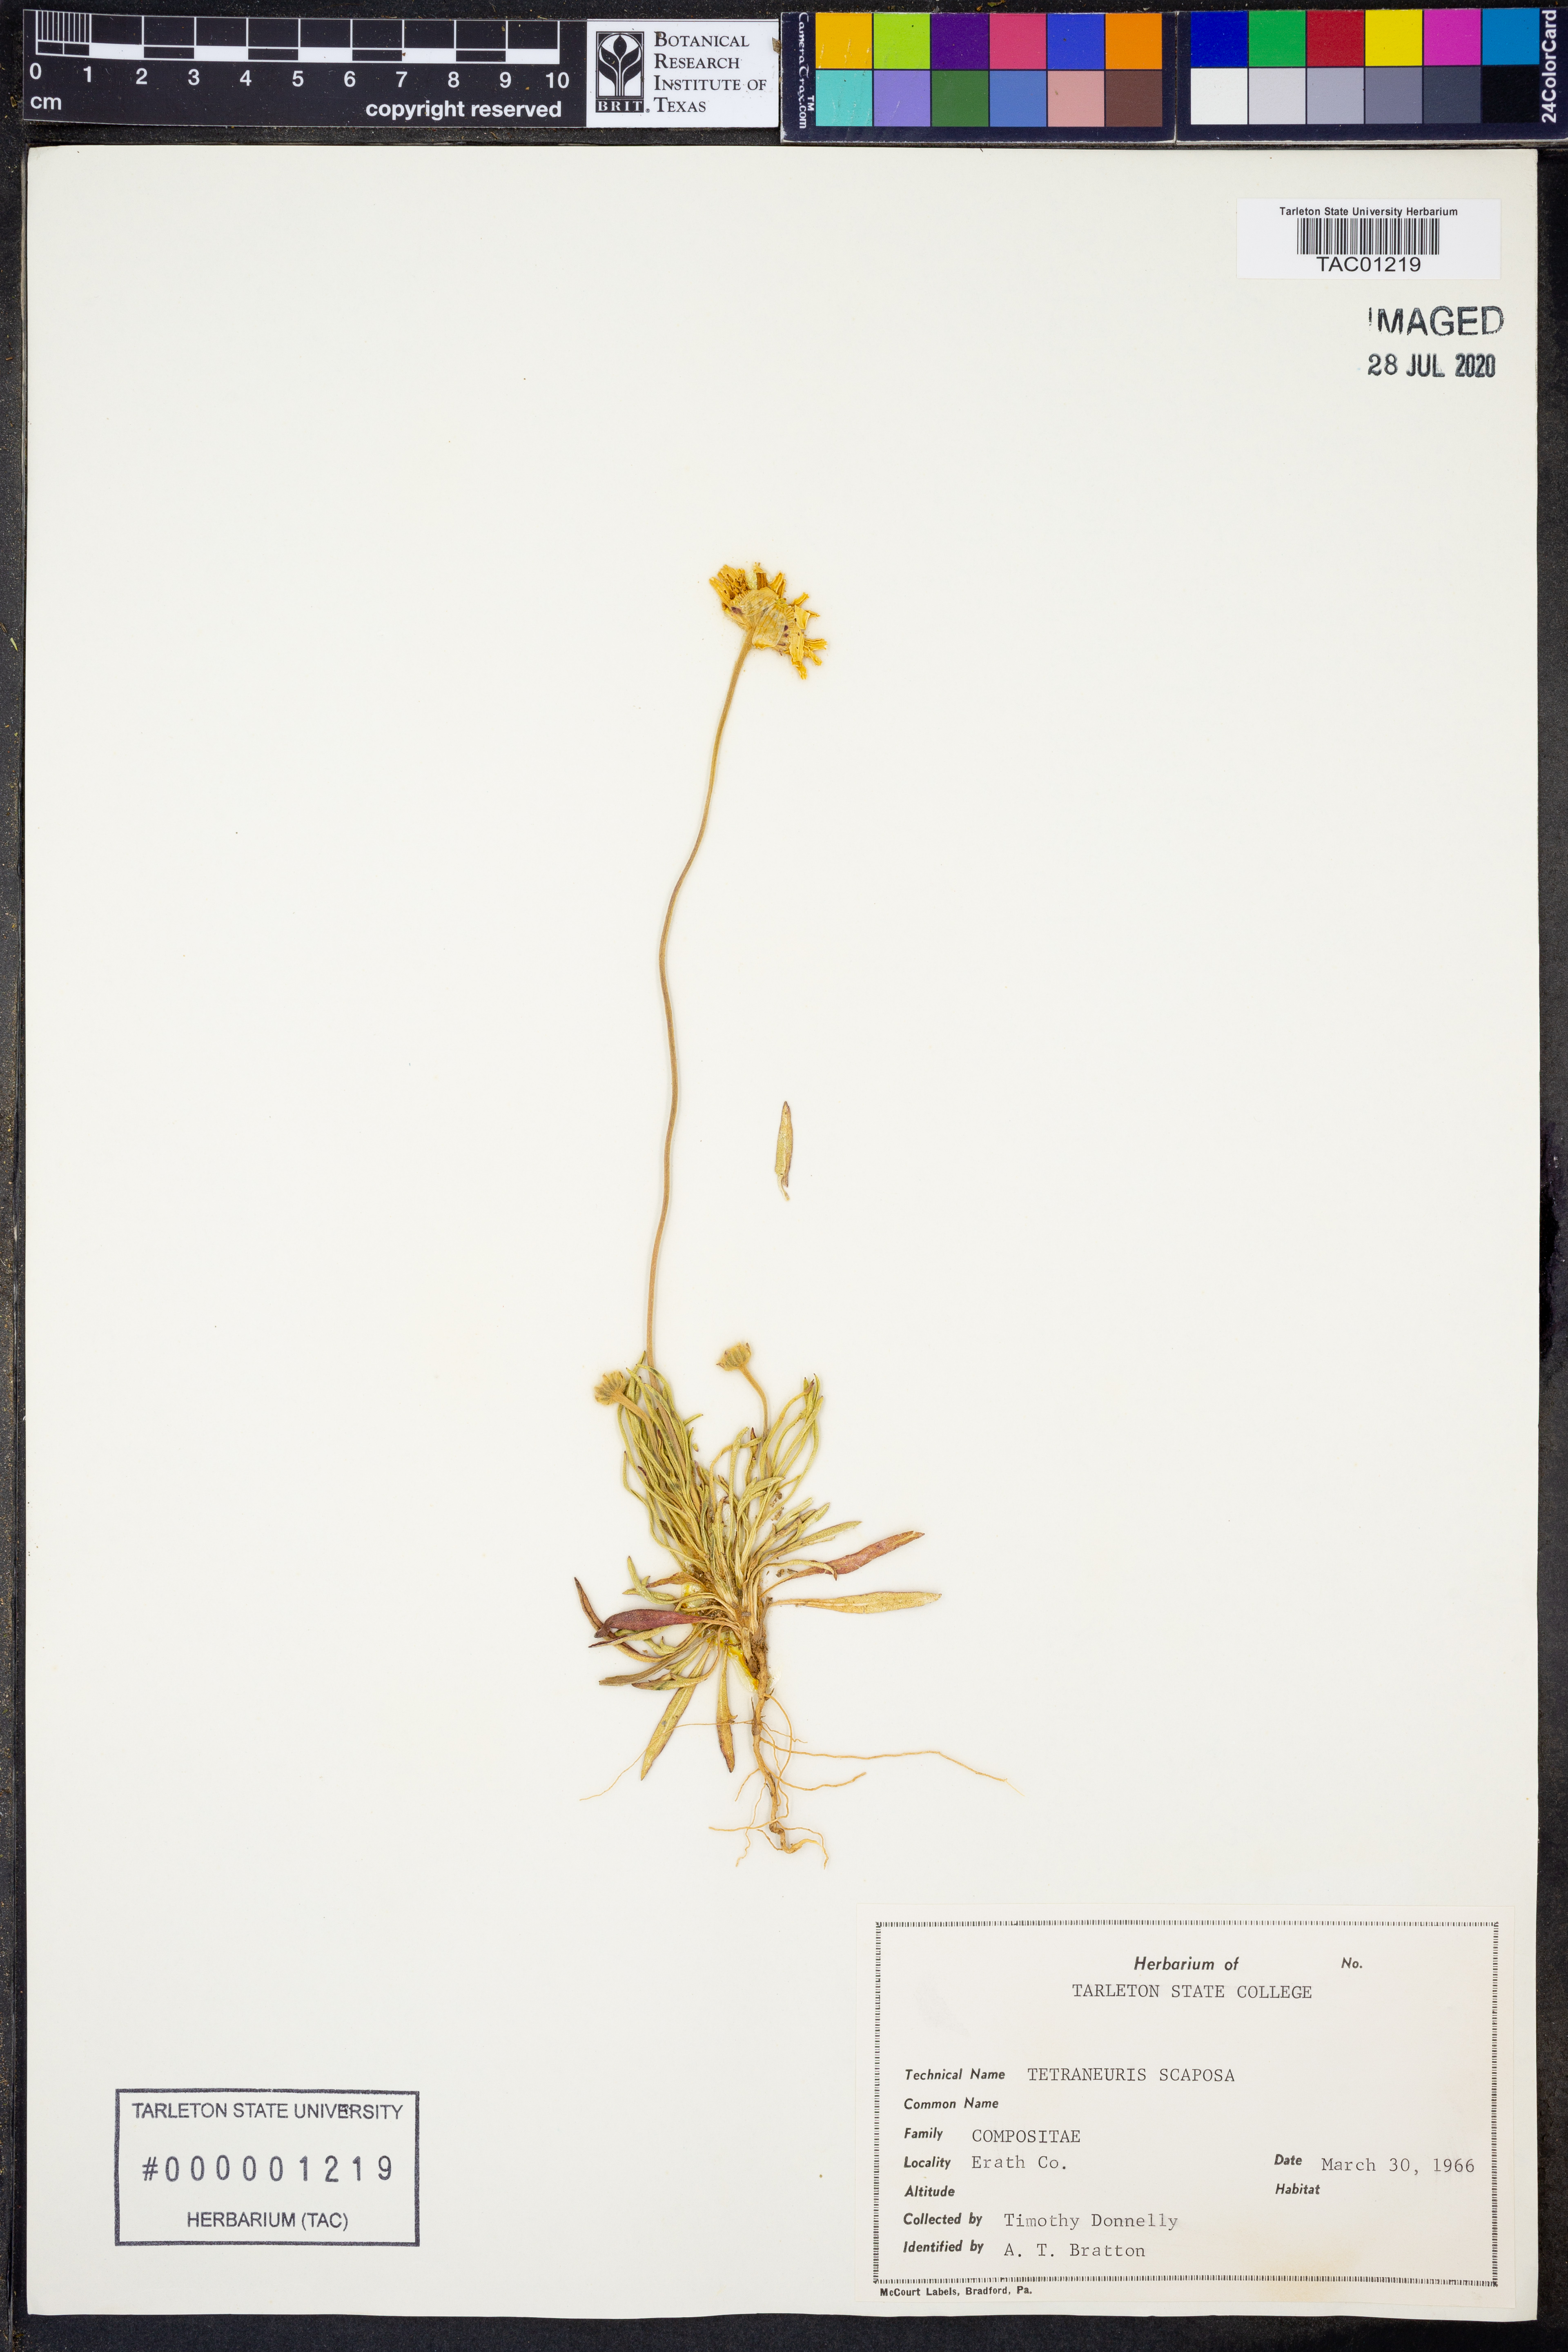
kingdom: Plantae
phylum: Tracheophyta
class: Magnoliopsida
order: Asterales
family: Asteraceae
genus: Tetraneuris
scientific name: Tetraneuris scaposa
